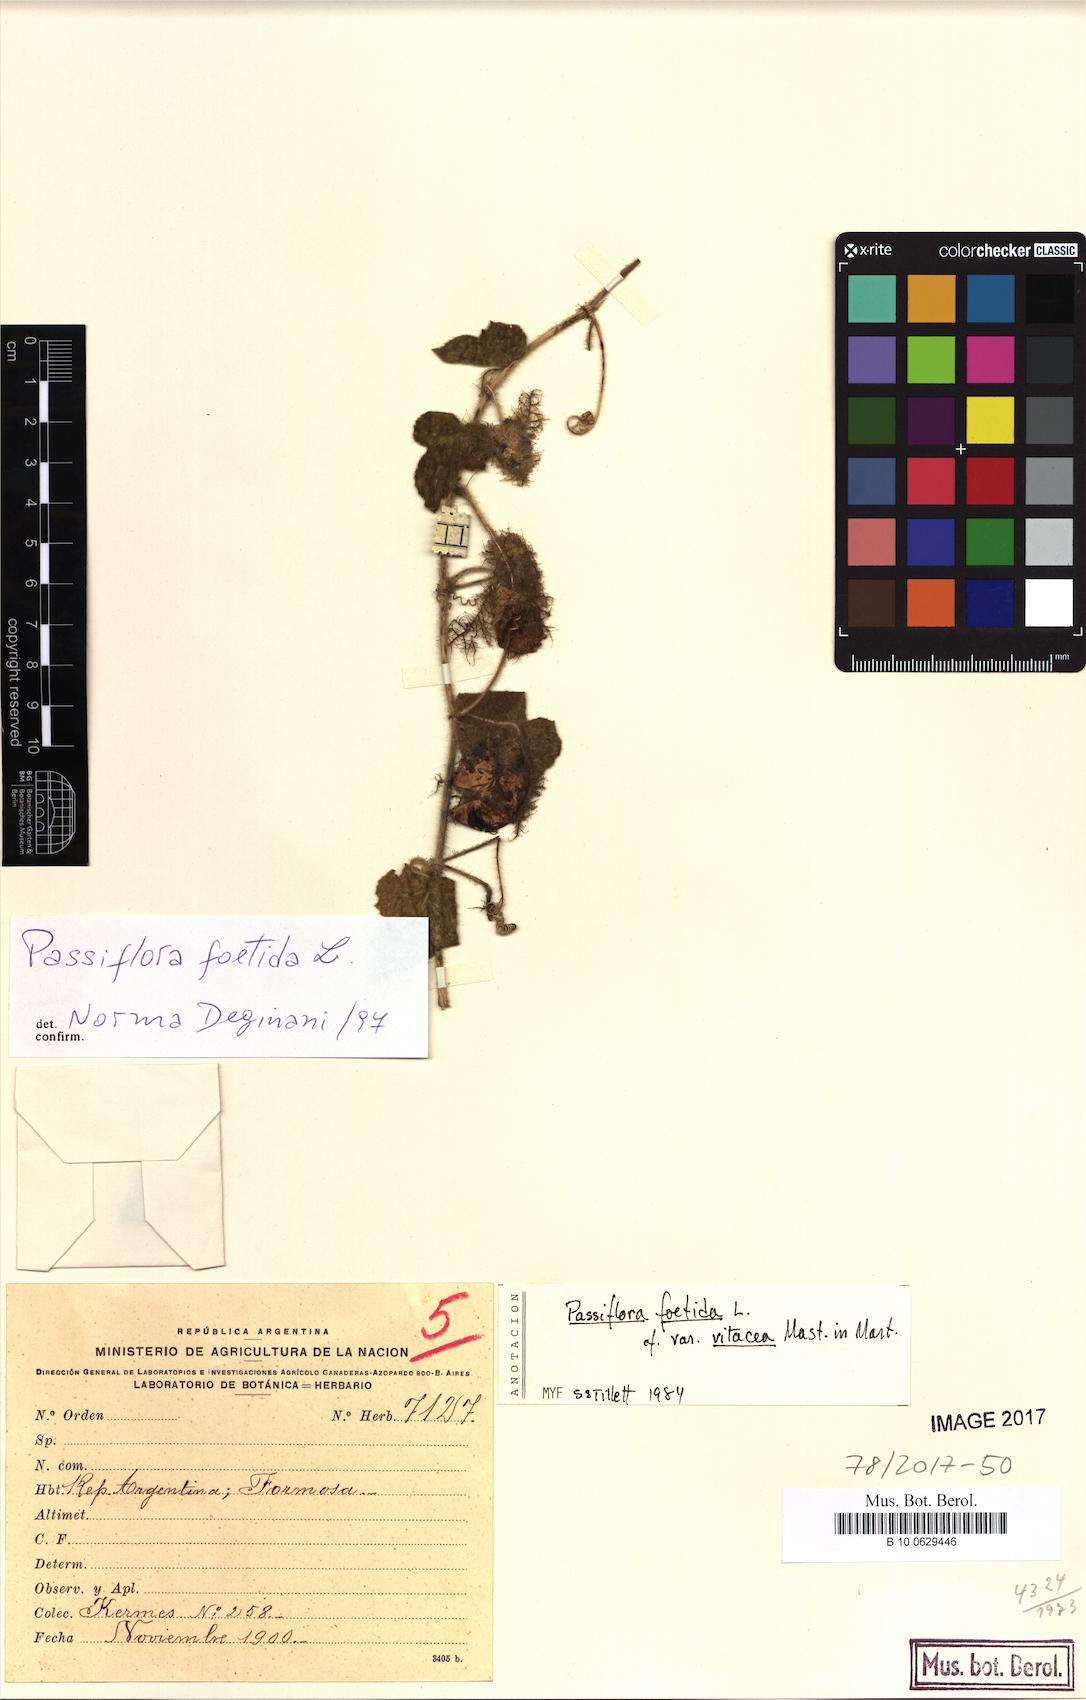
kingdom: Plantae
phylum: Tracheophyta
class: Magnoliopsida
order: Malpighiales
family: Passifloraceae
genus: Passiflora
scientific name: Passiflora foetida
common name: Fetid passionflower
